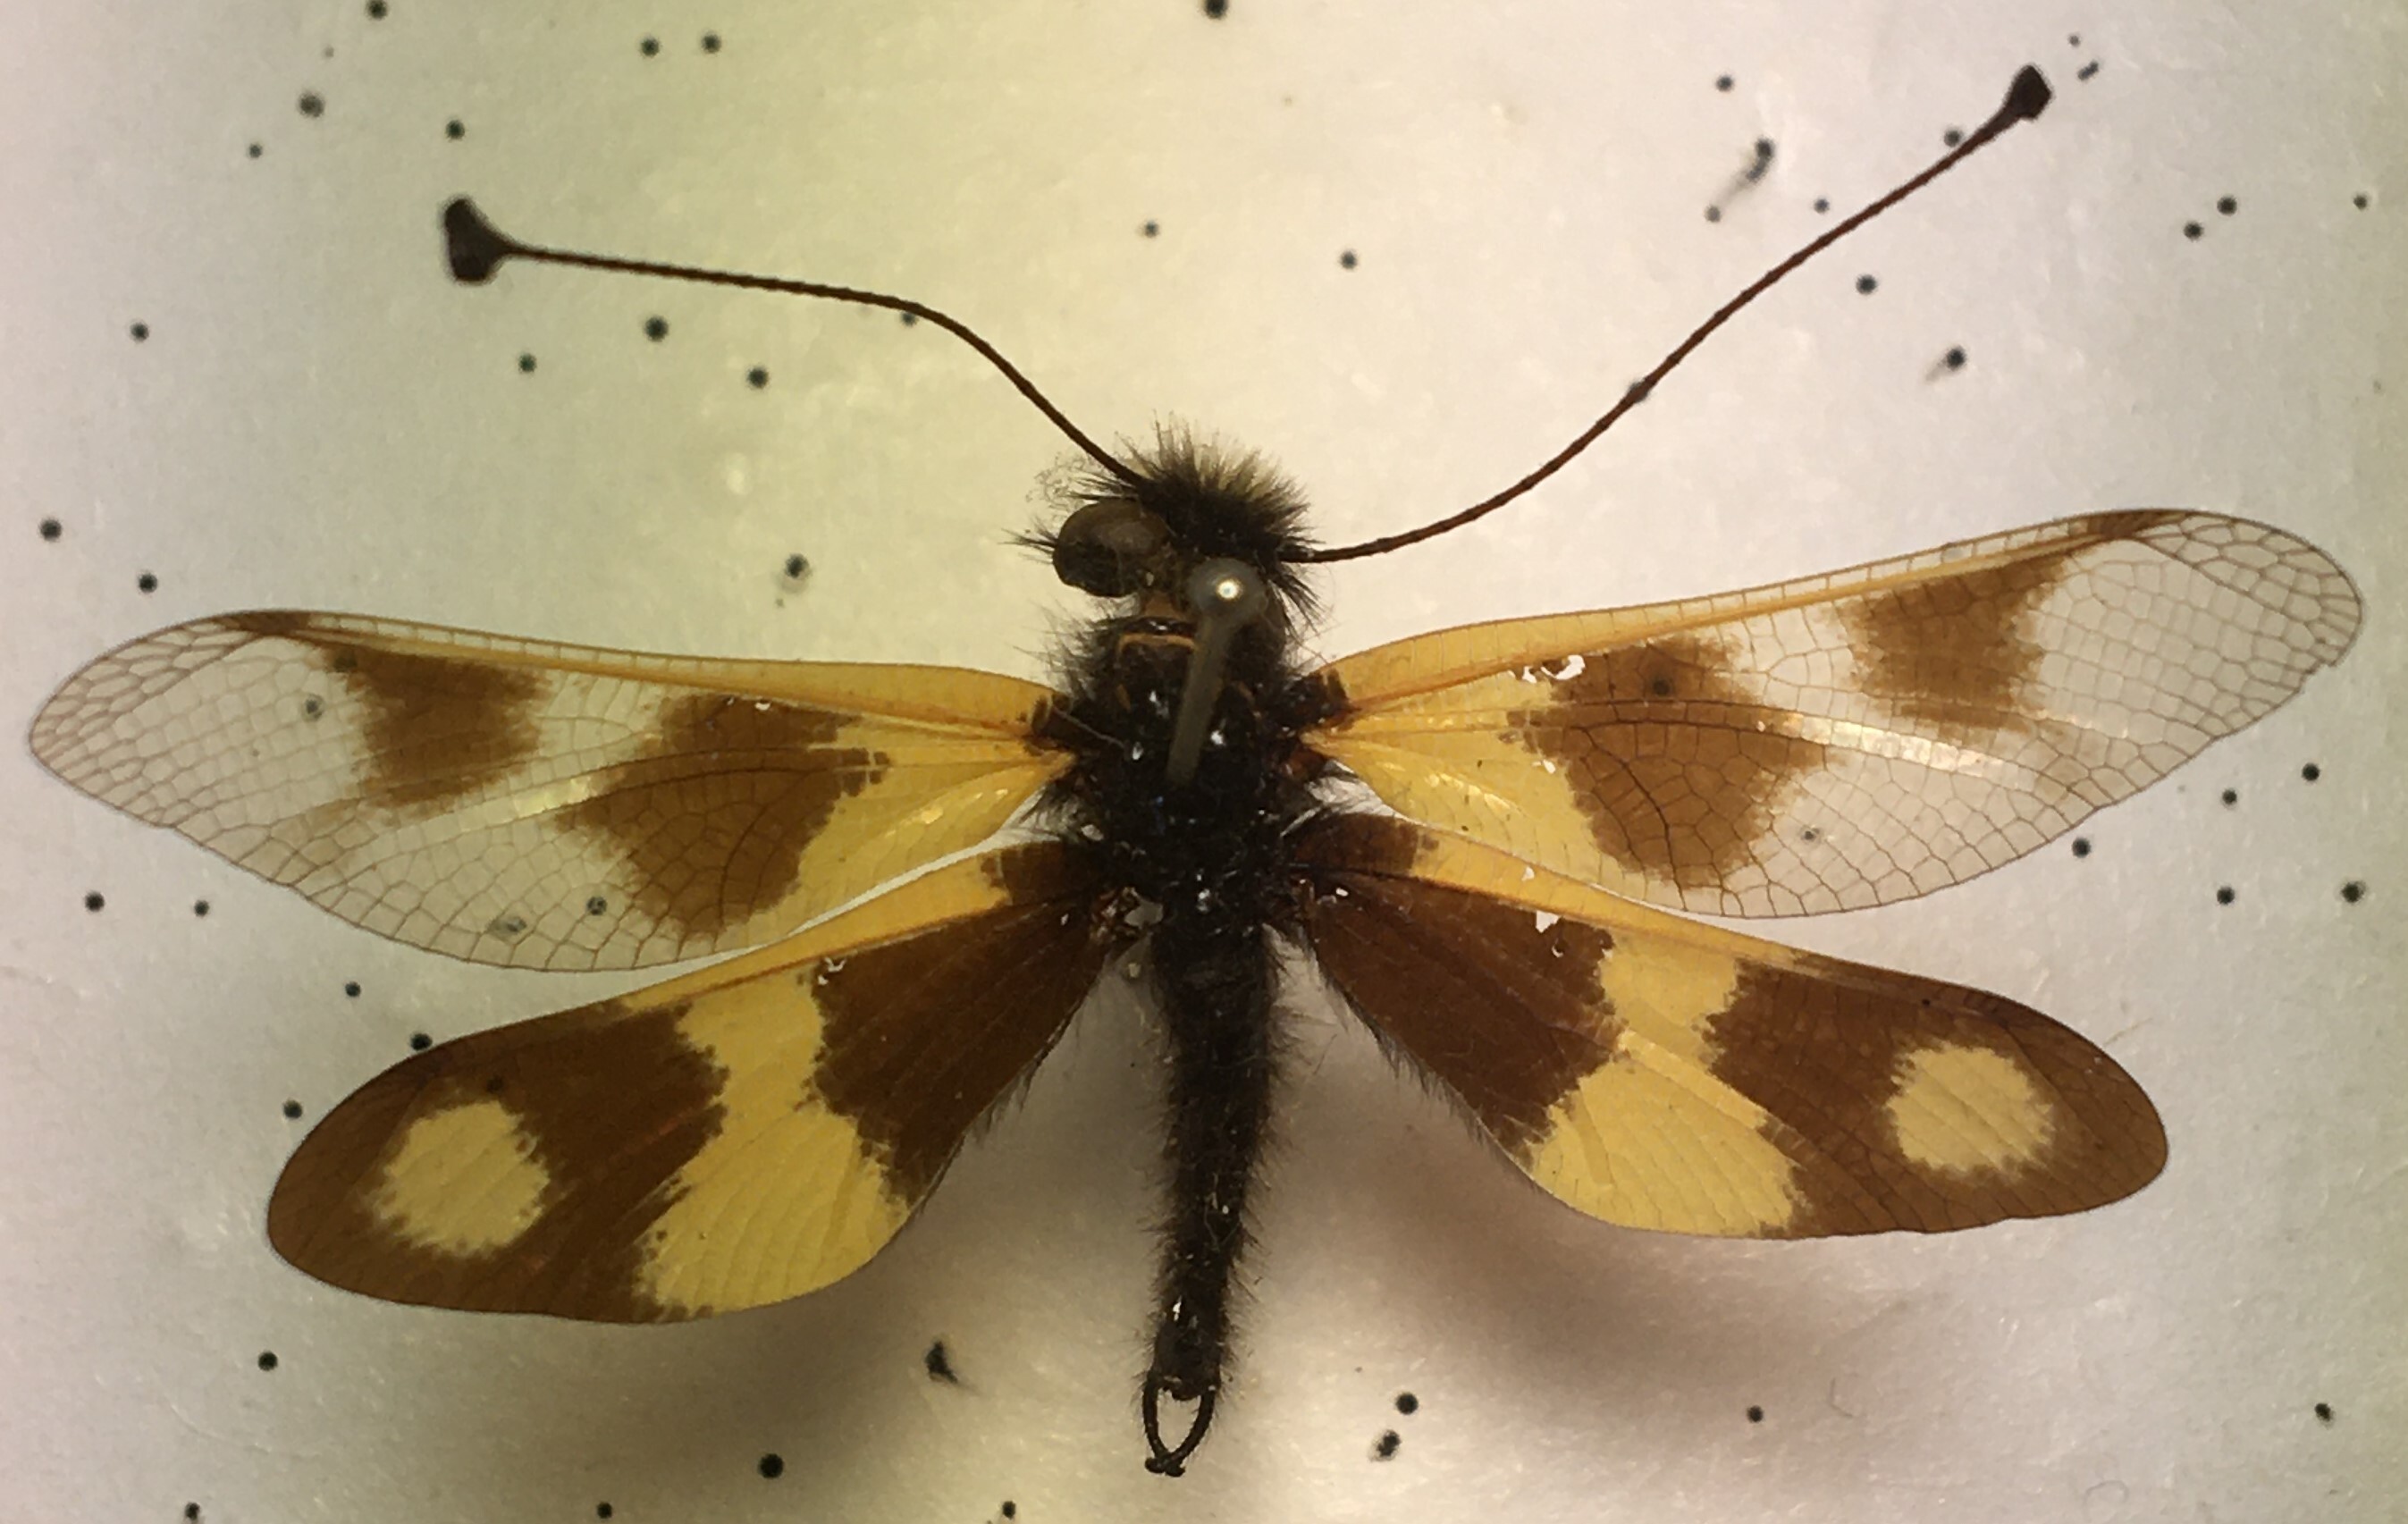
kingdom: Animalia
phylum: Arthropoda
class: Insecta
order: Neuroptera
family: Ascalaphidae
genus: Libelloides
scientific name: Libelloides macaronius
